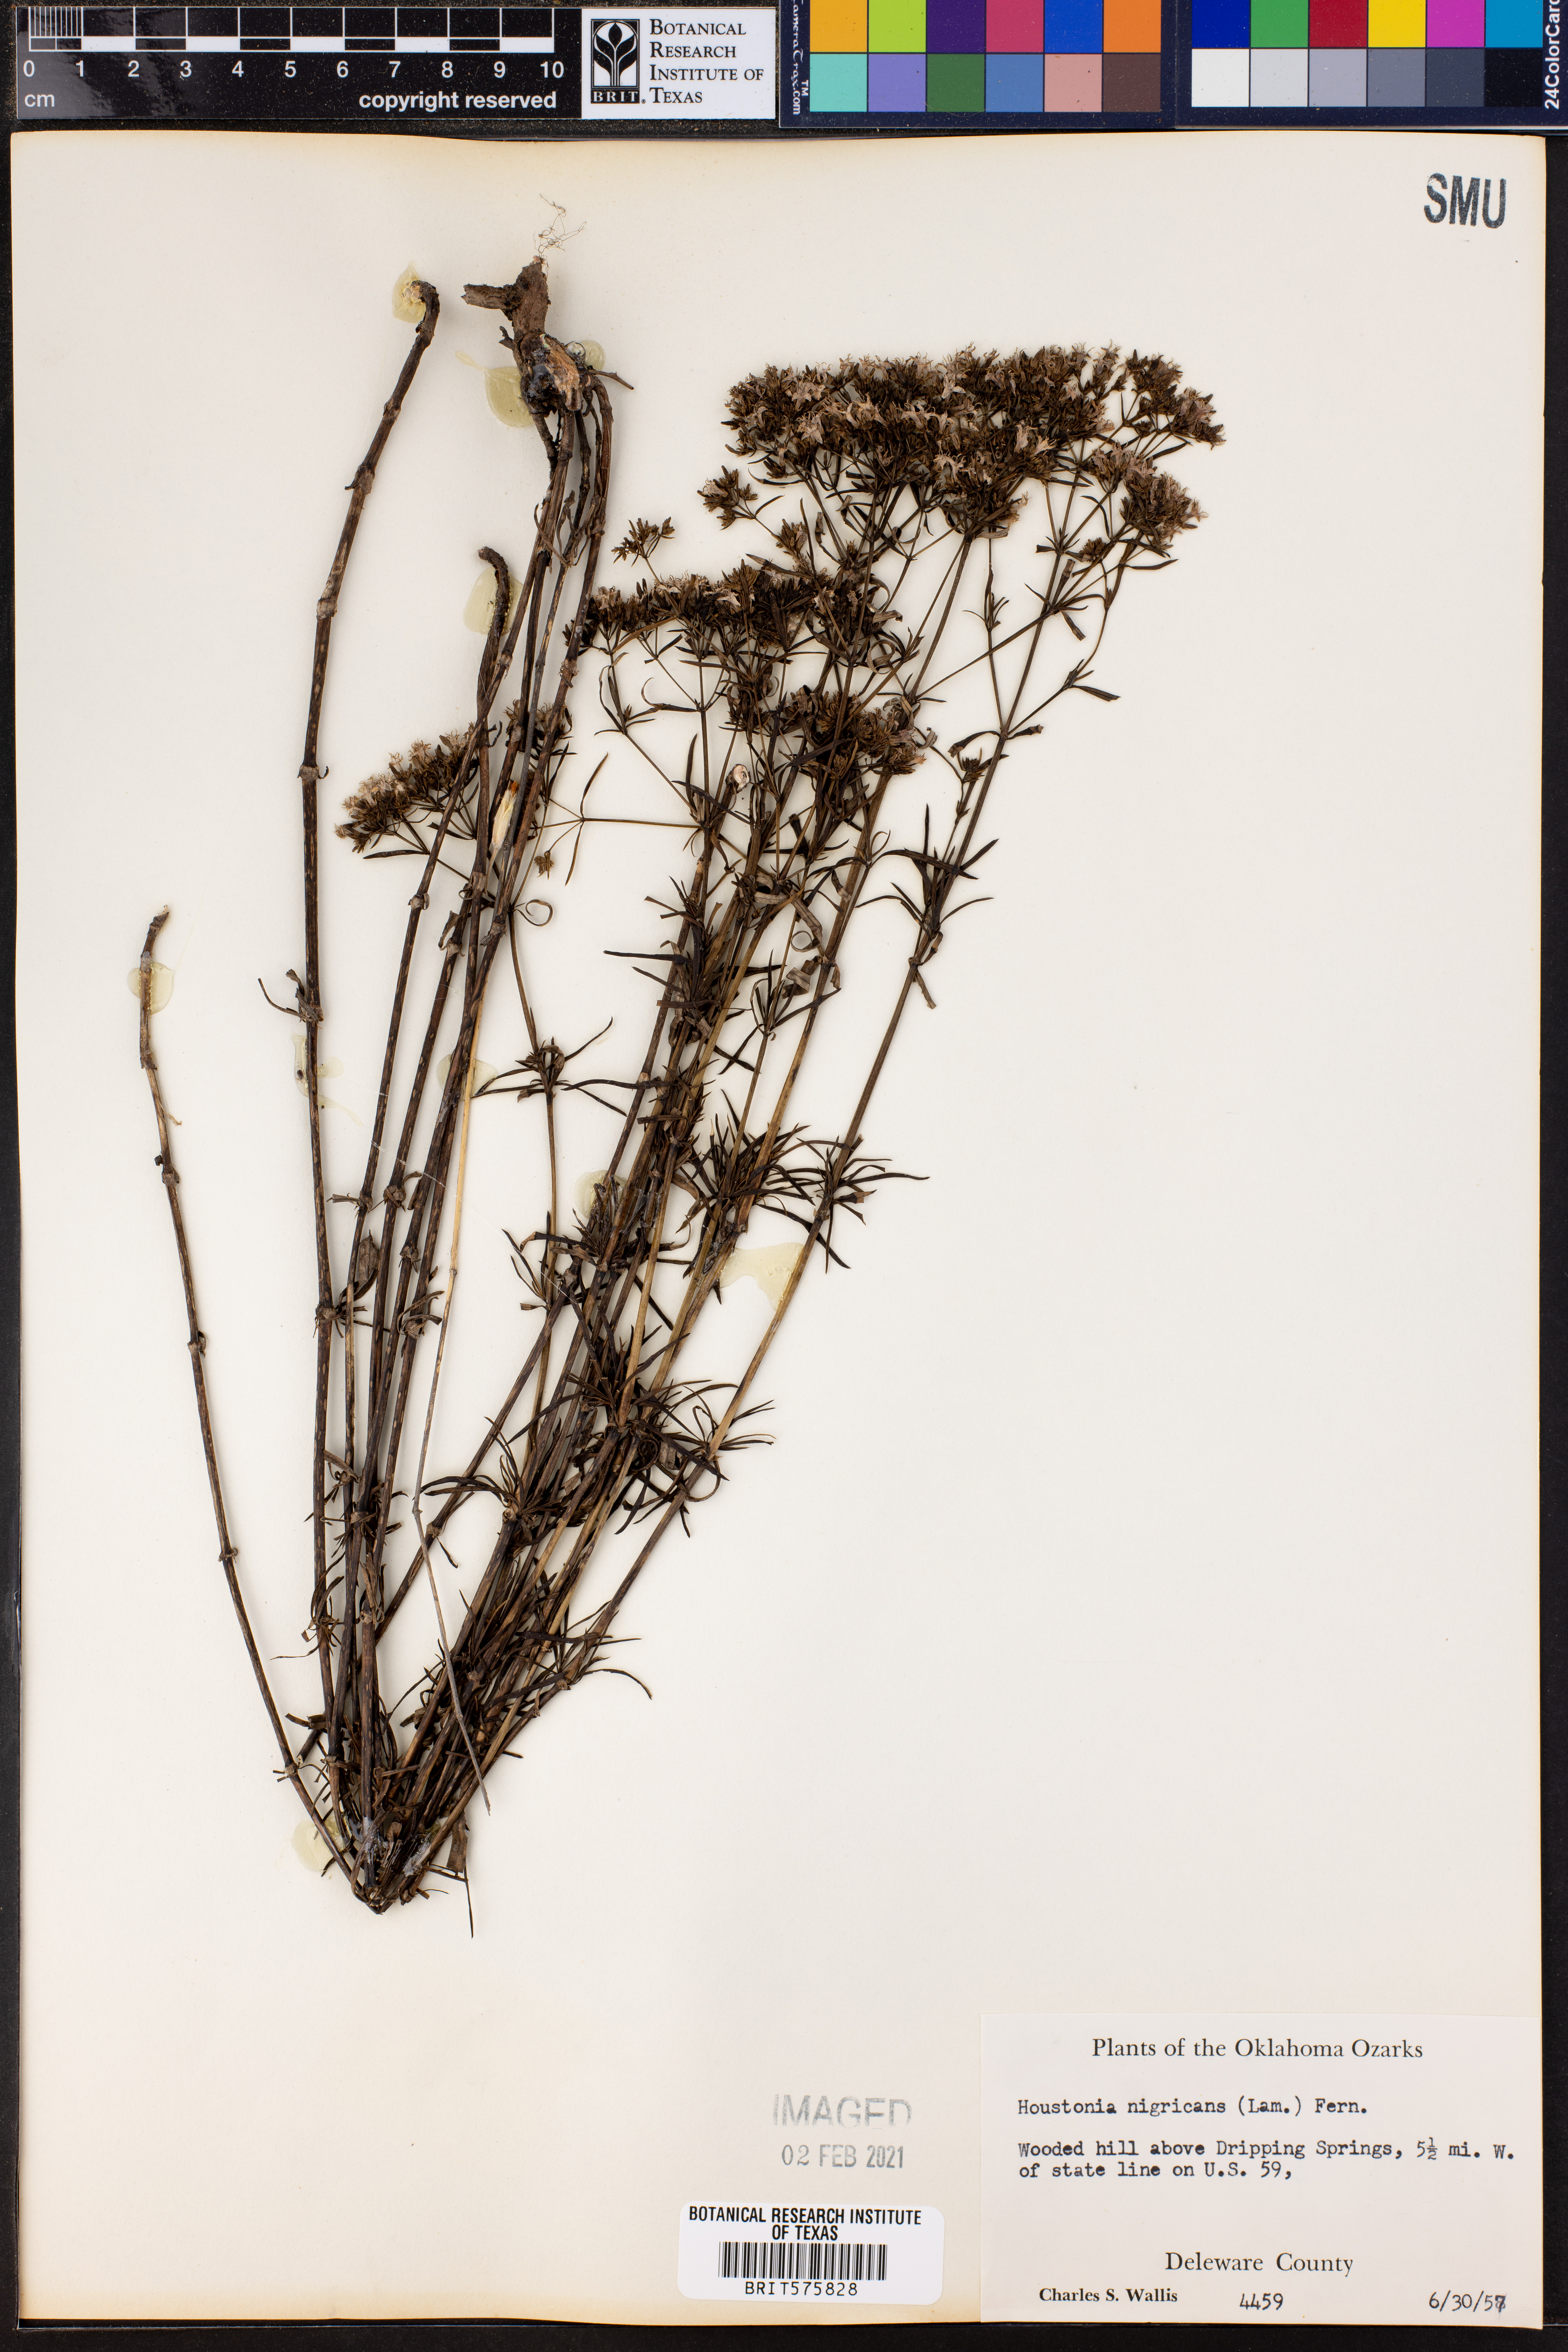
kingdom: Plantae
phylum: Tracheophyta
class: Magnoliopsida
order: Gentianales
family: Rubiaceae
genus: Stenaria
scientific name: Stenaria nigricans
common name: Diamondflowers
